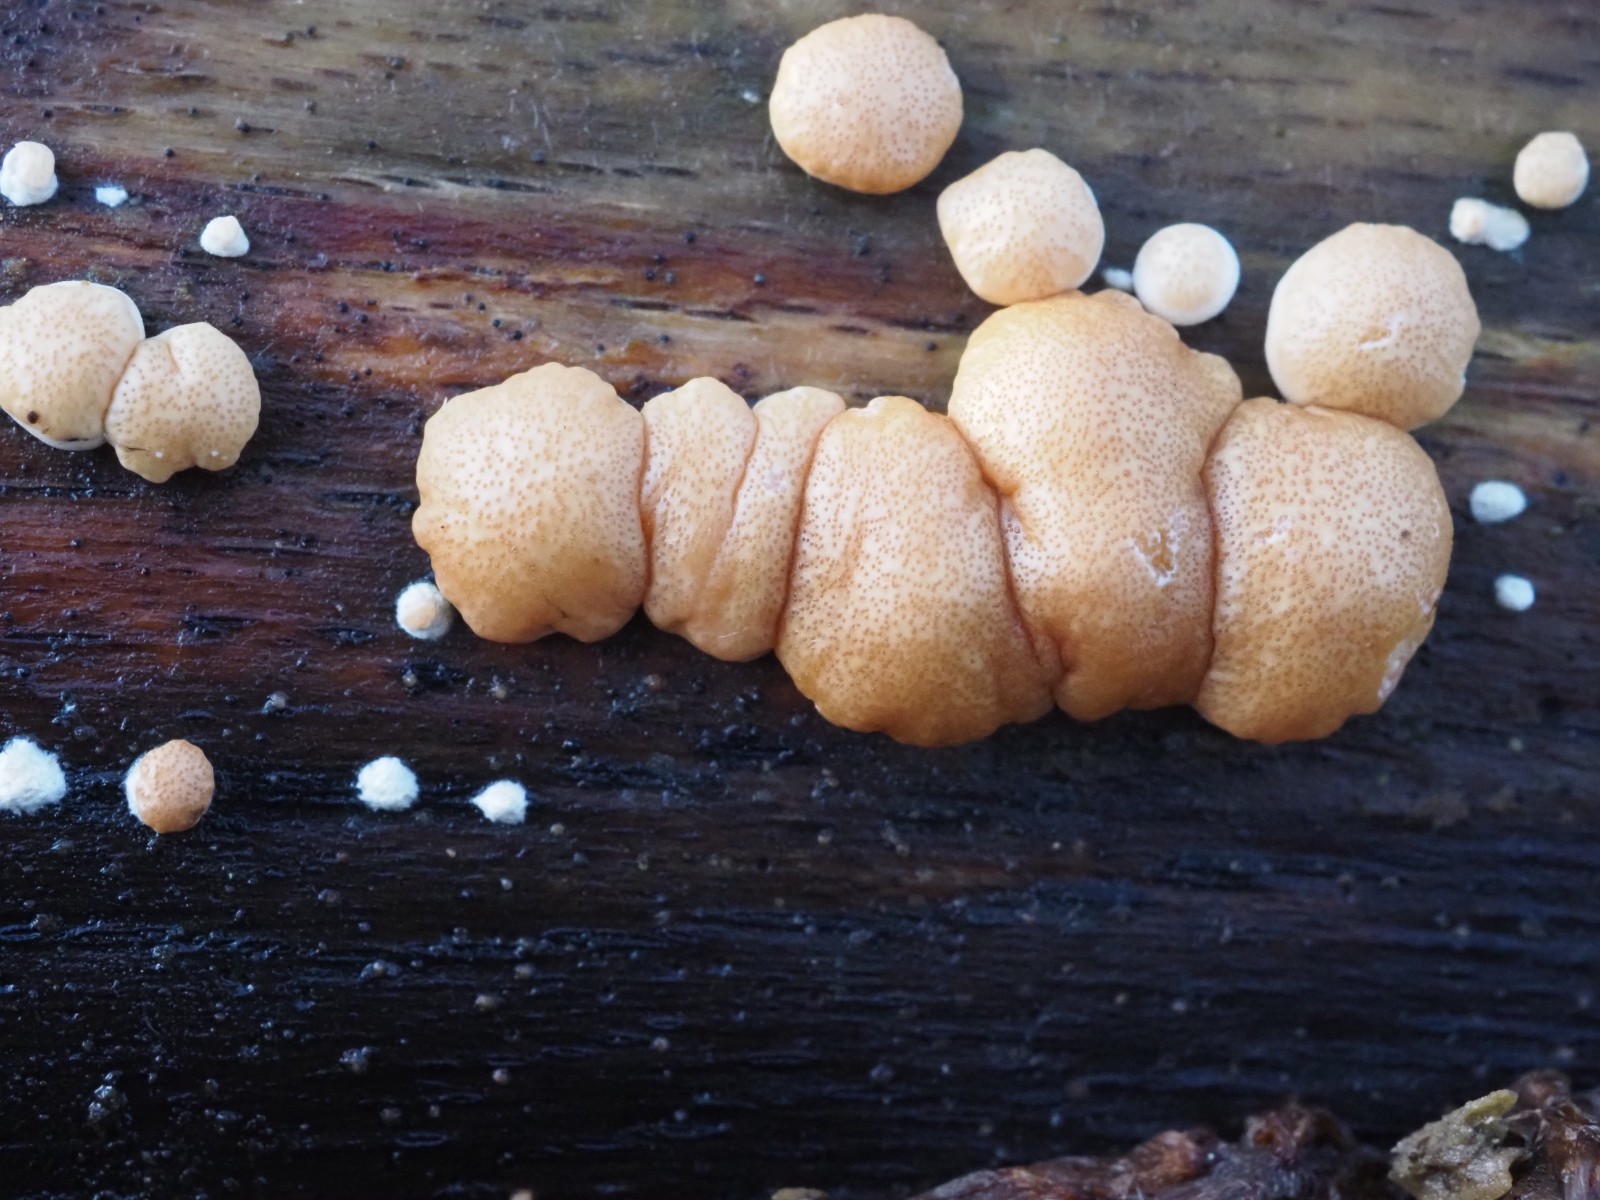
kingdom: Fungi
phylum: Ascomycota
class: Sordariomycetes
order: Hypocreales
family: Hypocreaceae
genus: Trichoderma
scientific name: Trichoderma europaeum
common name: rosabrun kødkerne
